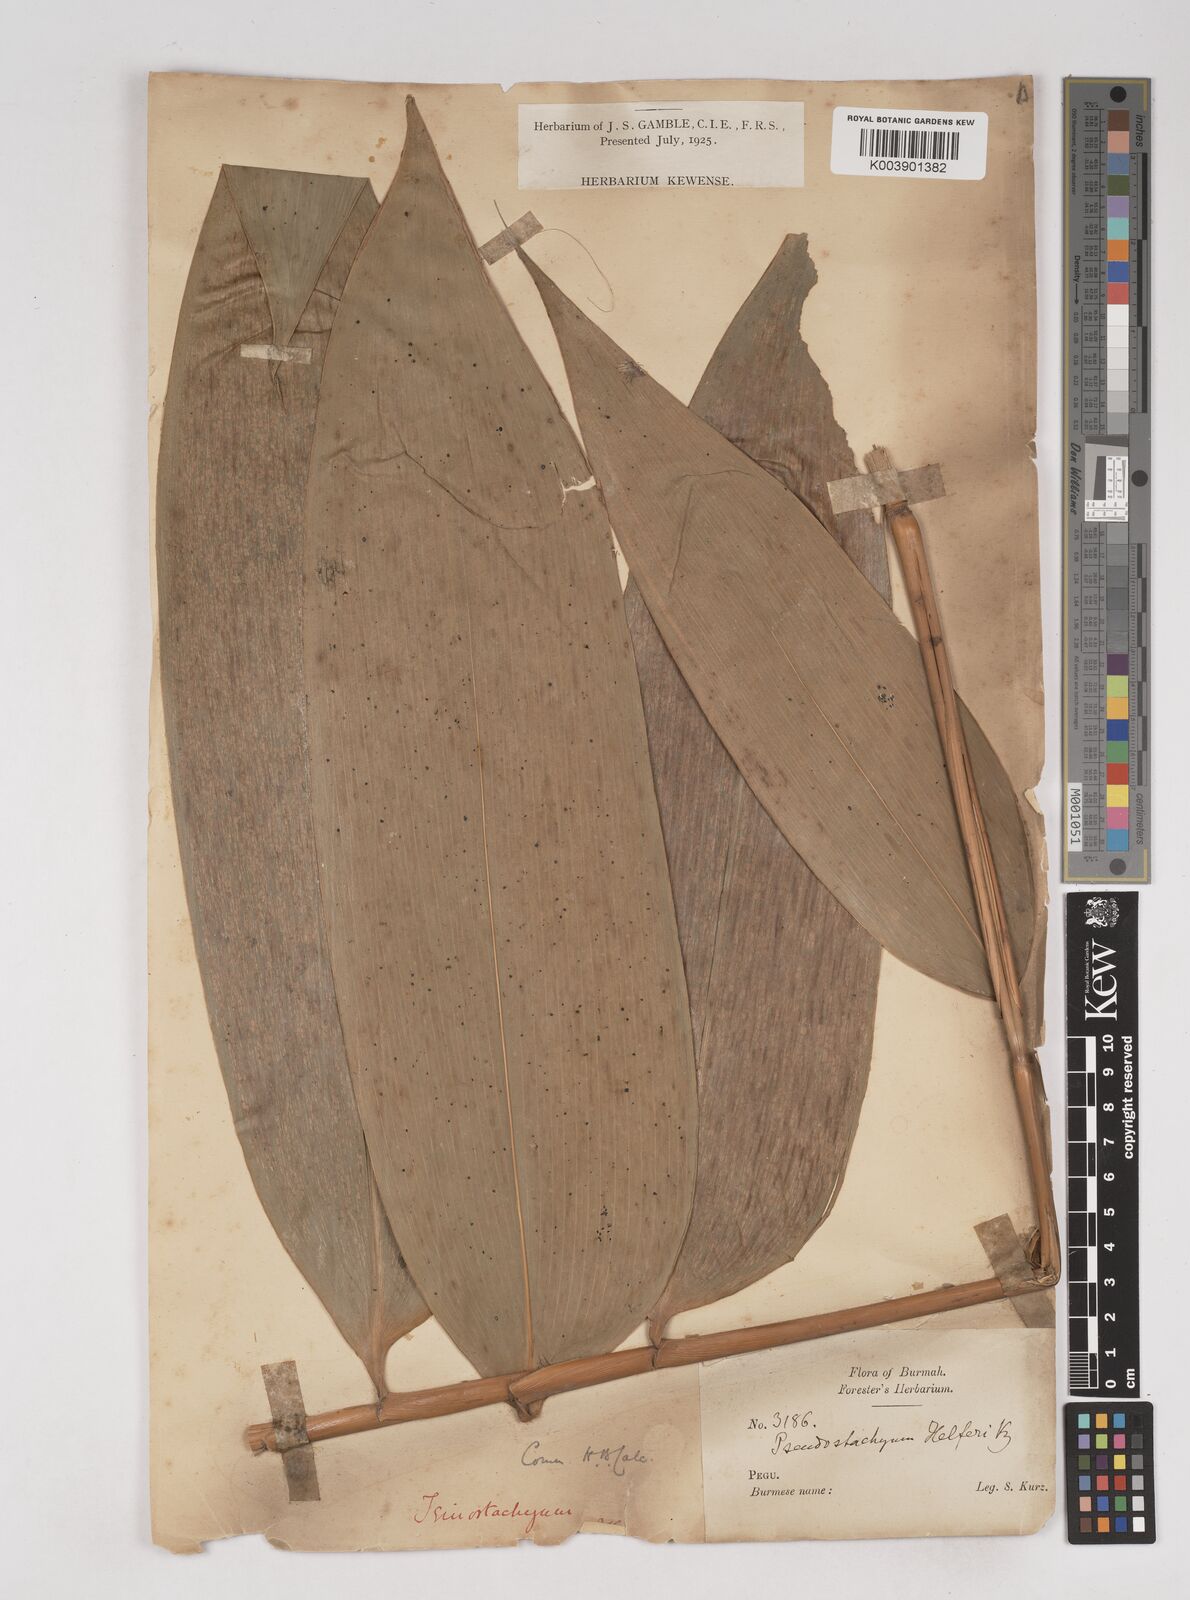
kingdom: Plantae
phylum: Tracheophyta
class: Liliopsida
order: Poales
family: Poaceae
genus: Schizostachyum
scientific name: Schizostachyum helferi
